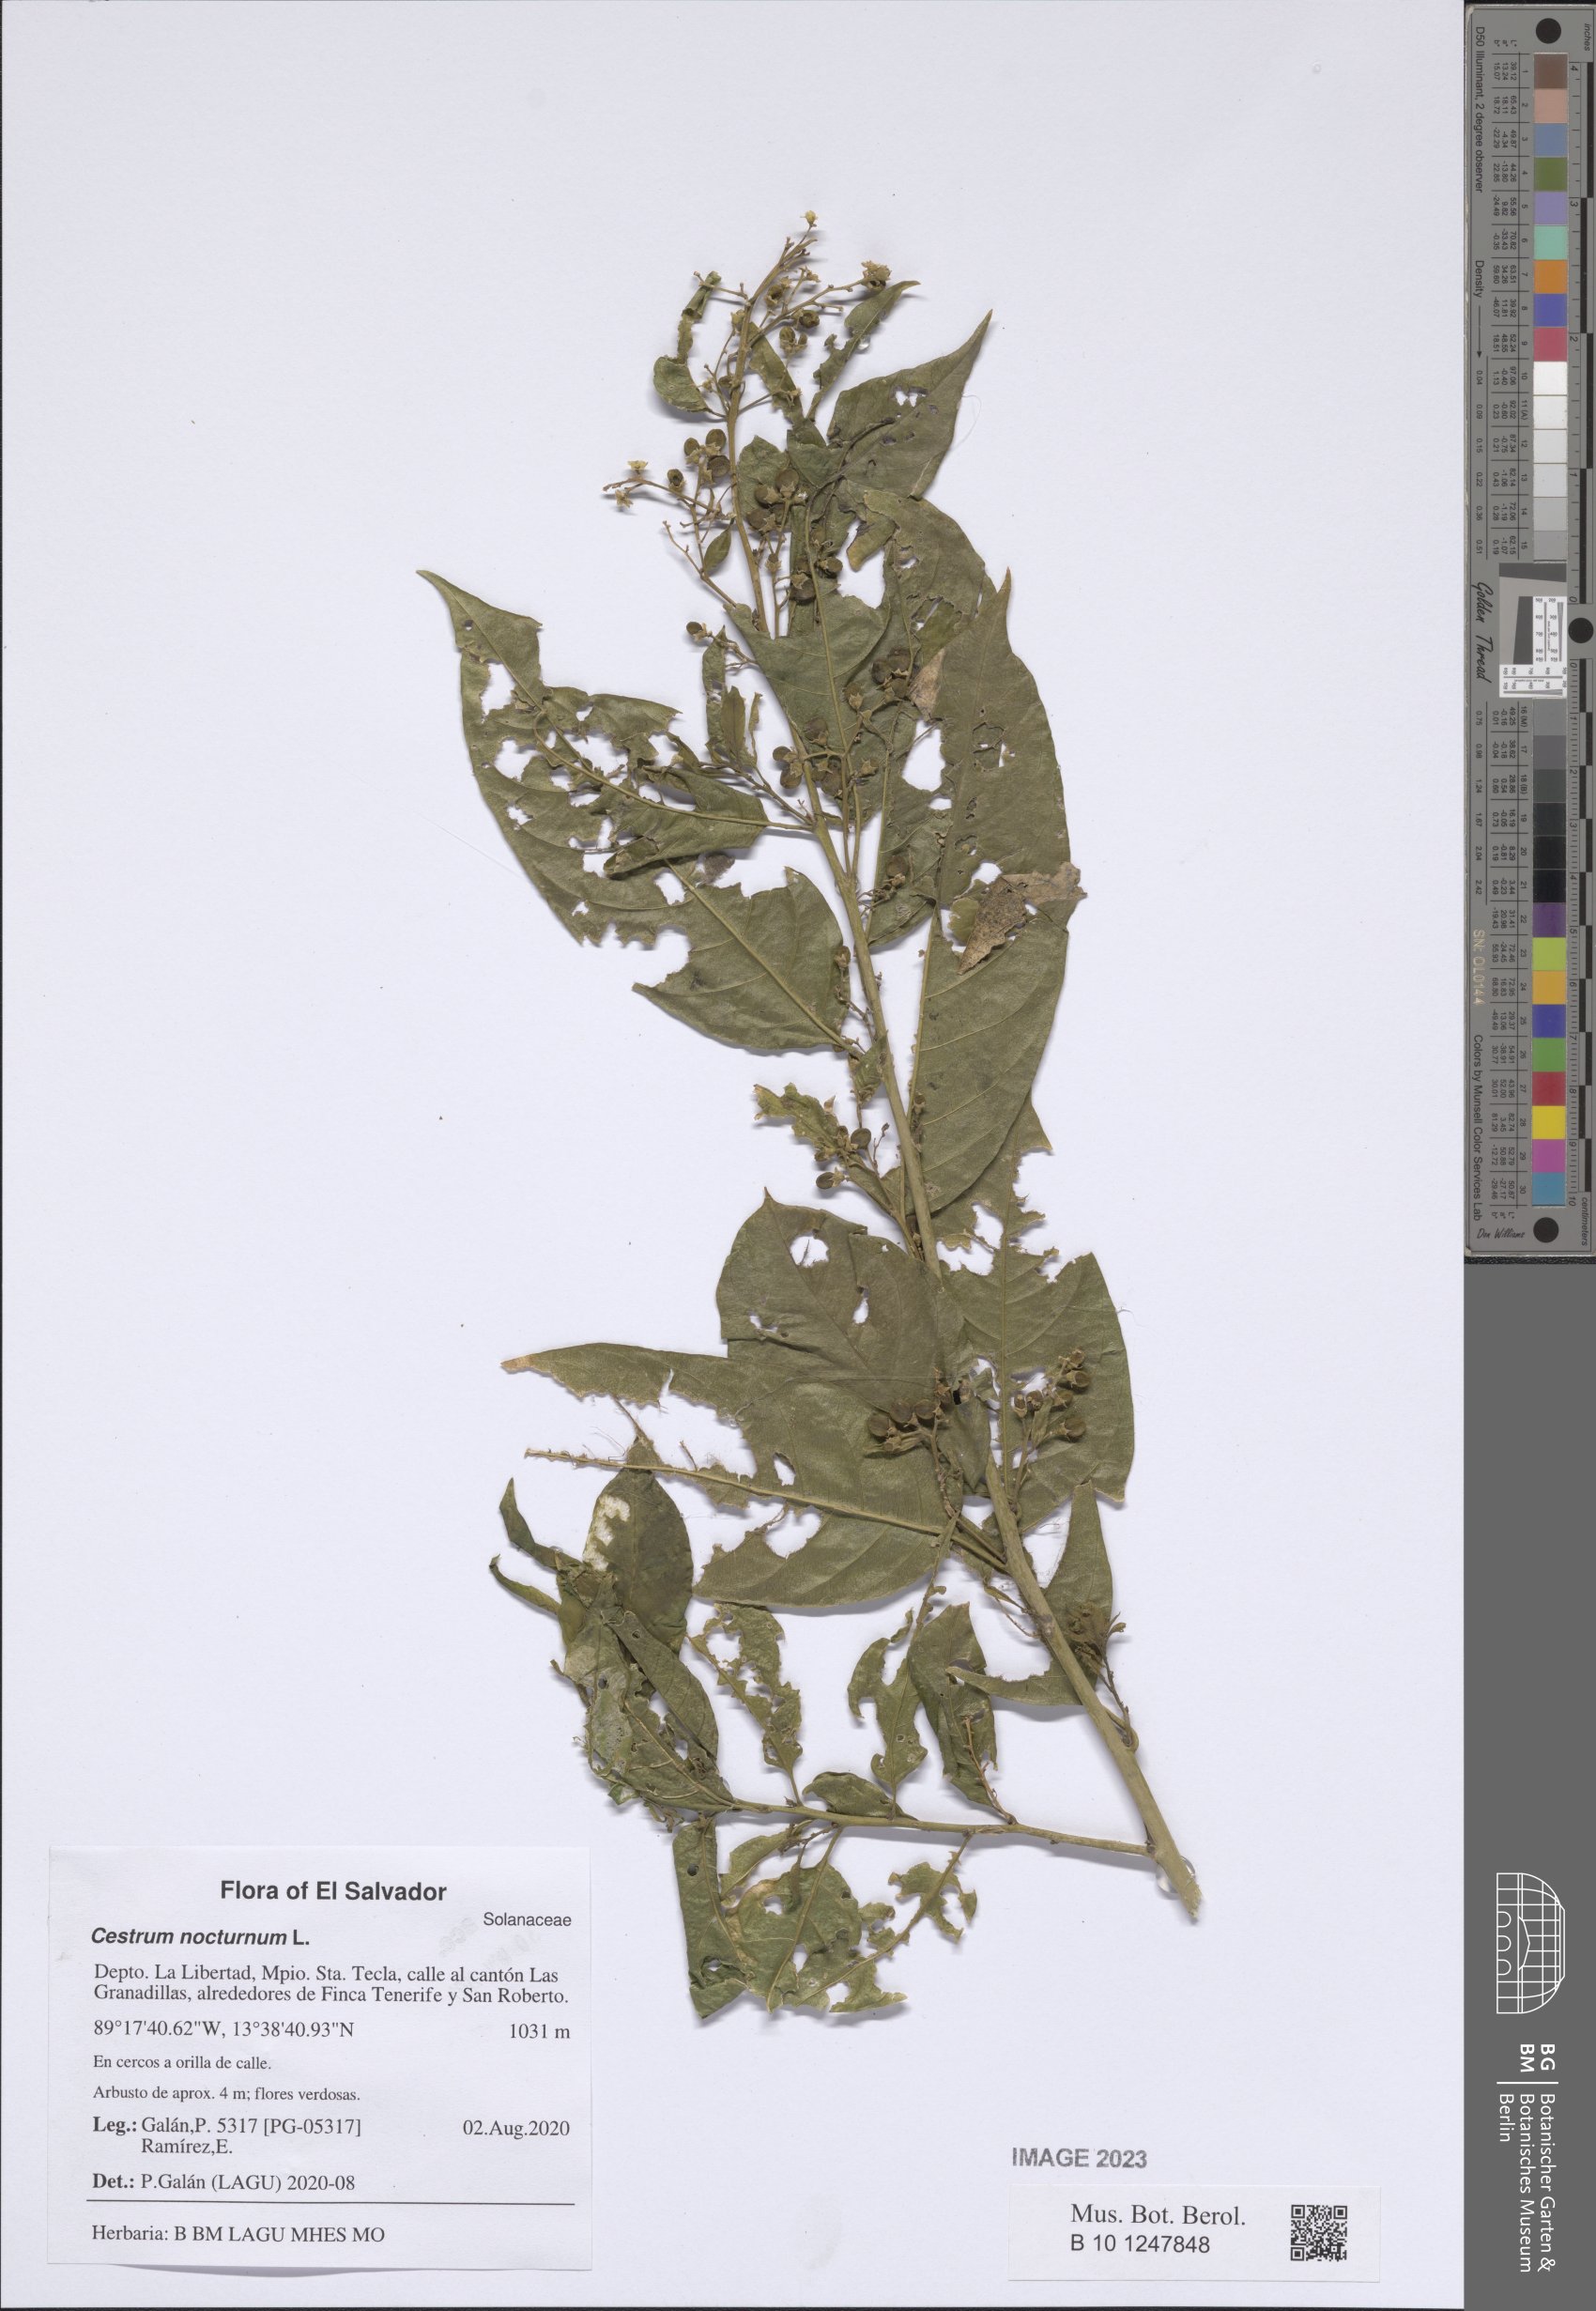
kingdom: Plantae
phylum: Tracheophyta
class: Magnoliopsida
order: Solanales
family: Solanaceae
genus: Cestrum
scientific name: Cestrum nocturnum
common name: Night jessamine
